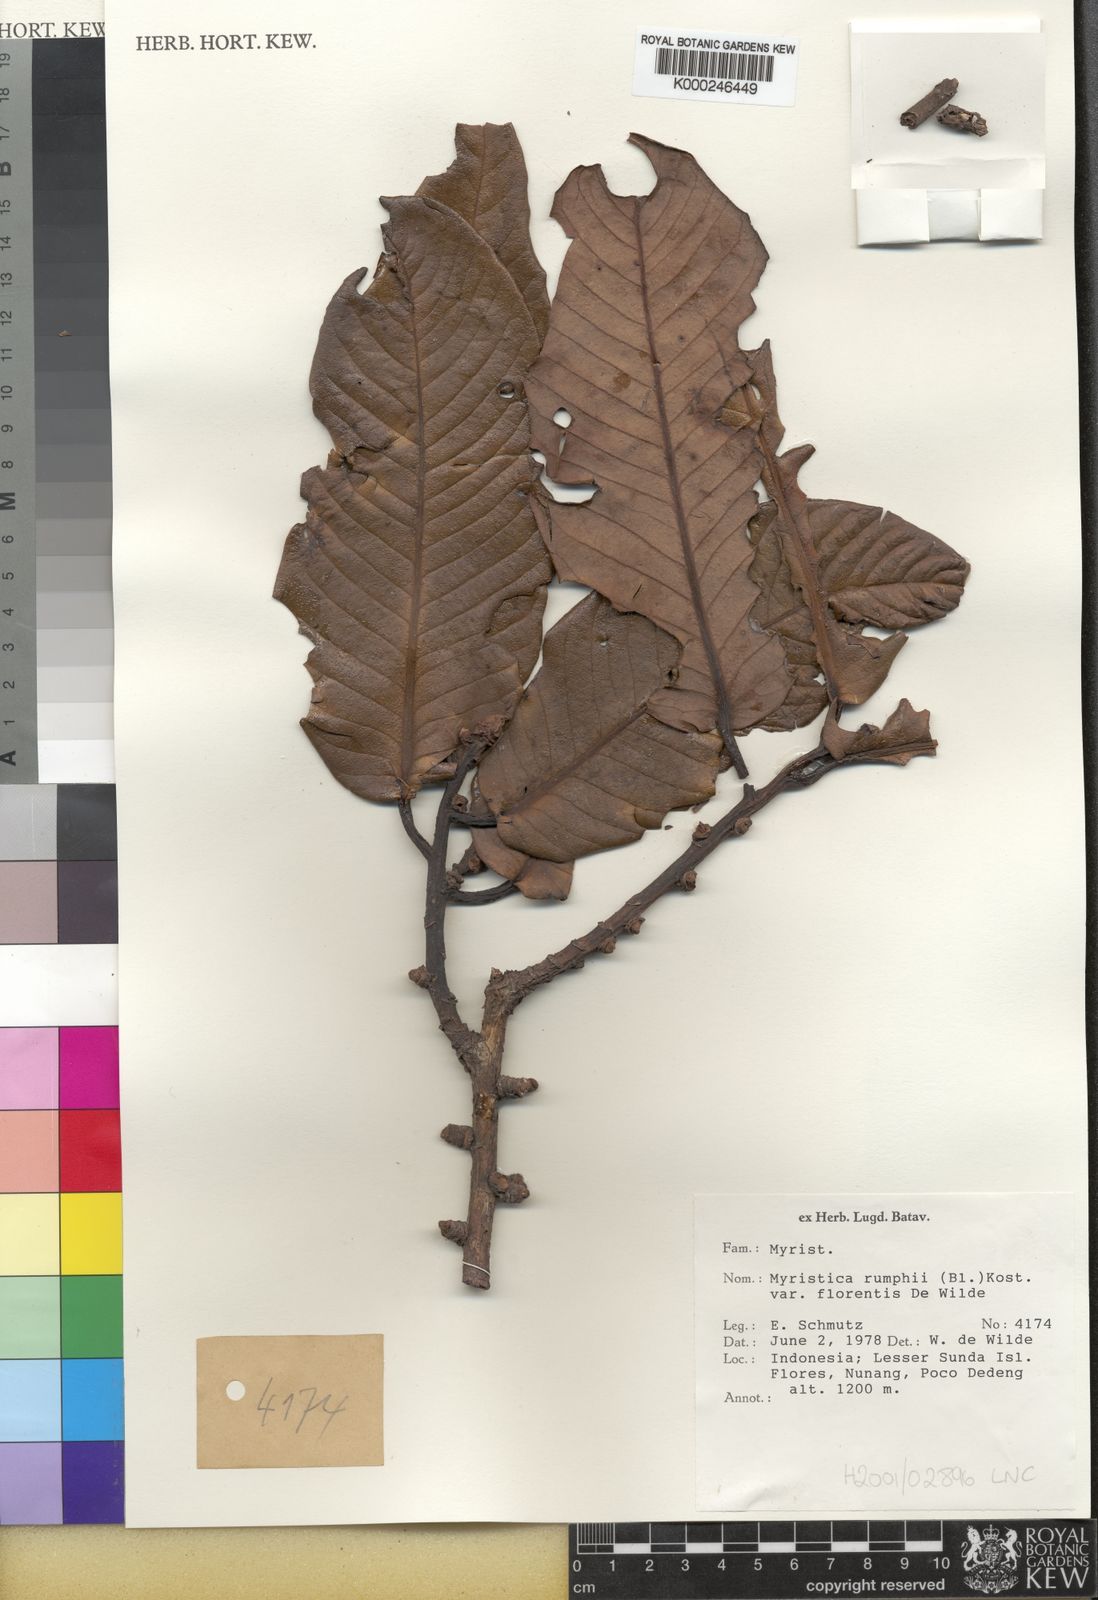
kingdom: Plantae
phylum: Tracheophyta
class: Magnoliopsida
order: Magnoliales
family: Myristicaceae
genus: Myristica
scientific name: Myristica rumphii
